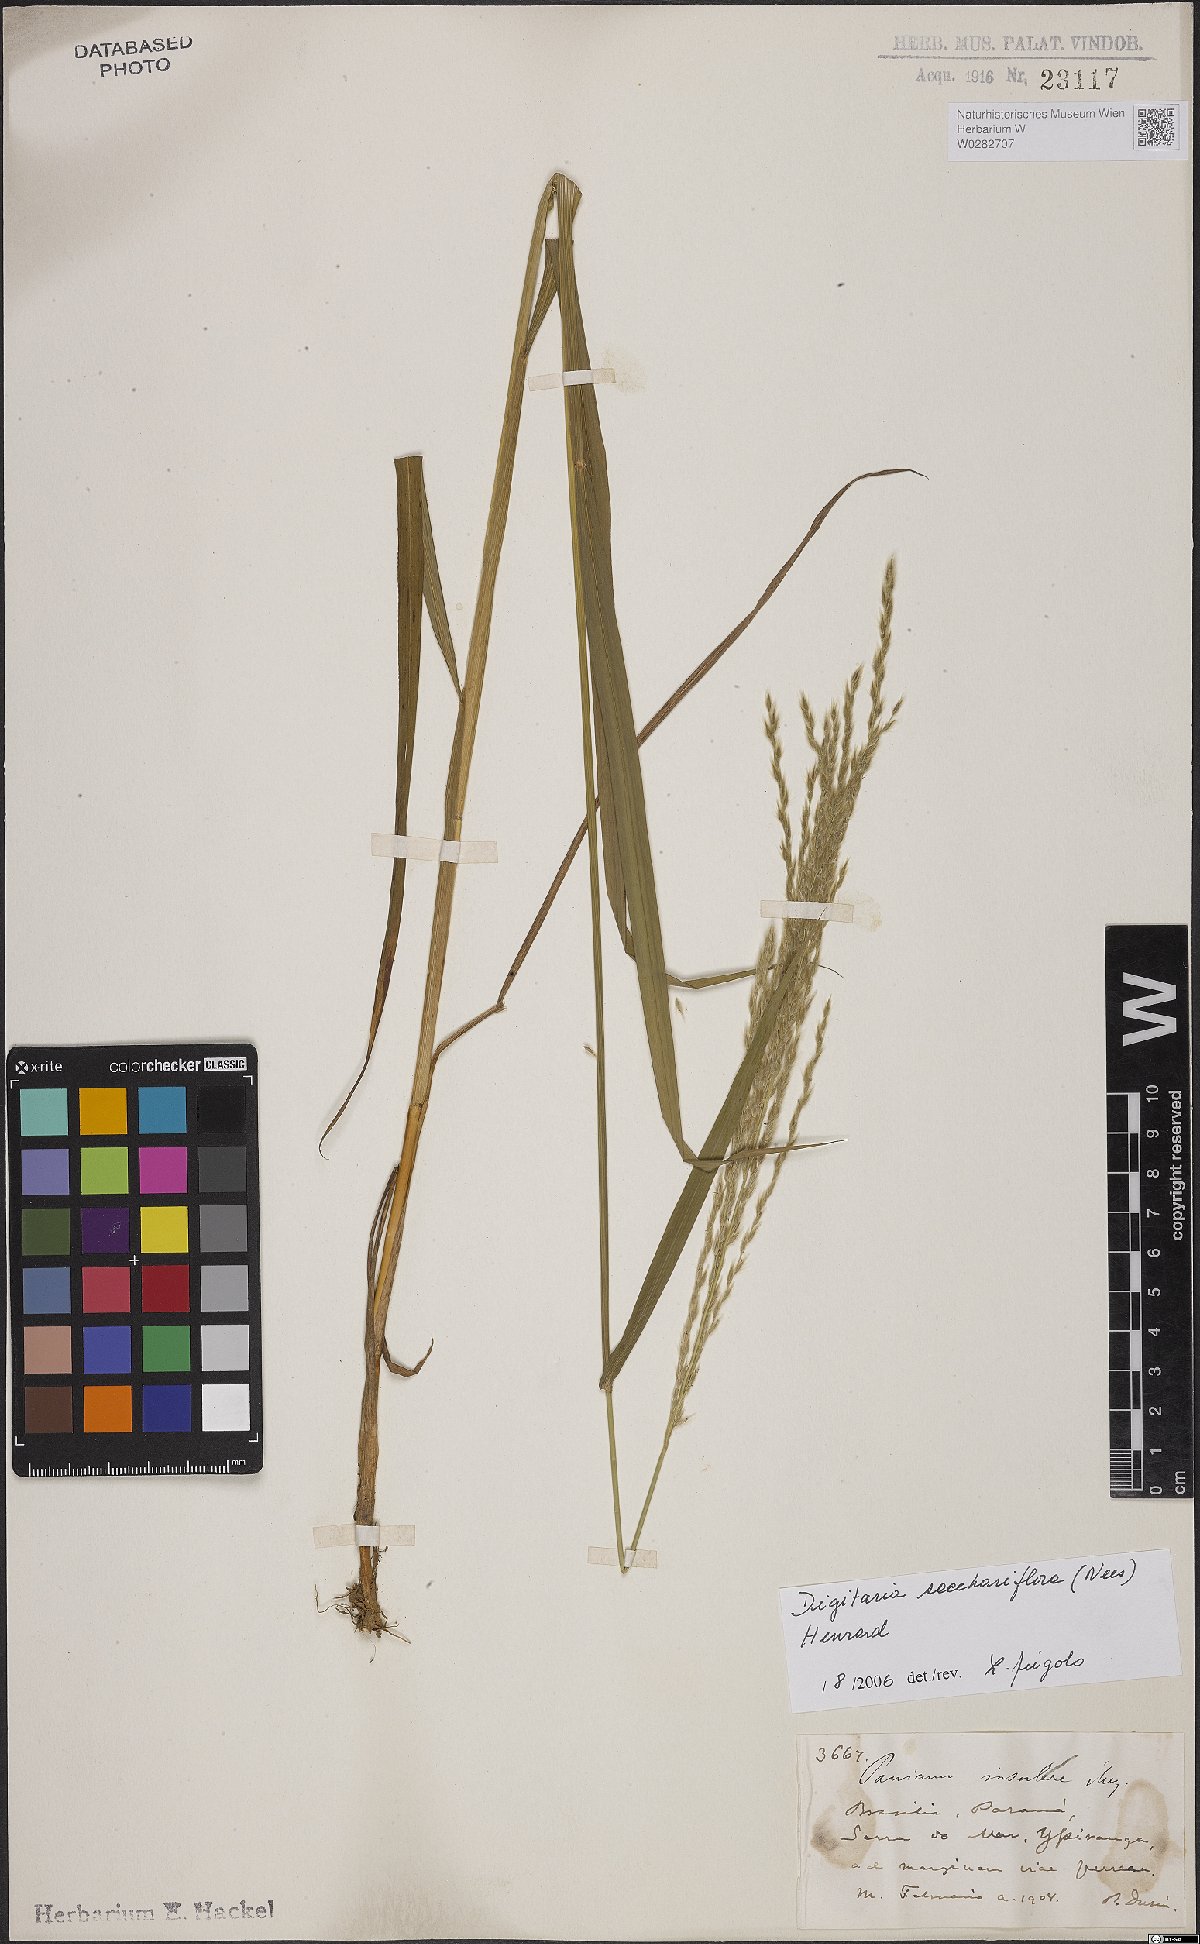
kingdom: Plantae
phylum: Tracheophyta
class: Liliopsida
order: Poales
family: Poaceae
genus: Digitaria
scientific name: Digitaria sacchariflora
